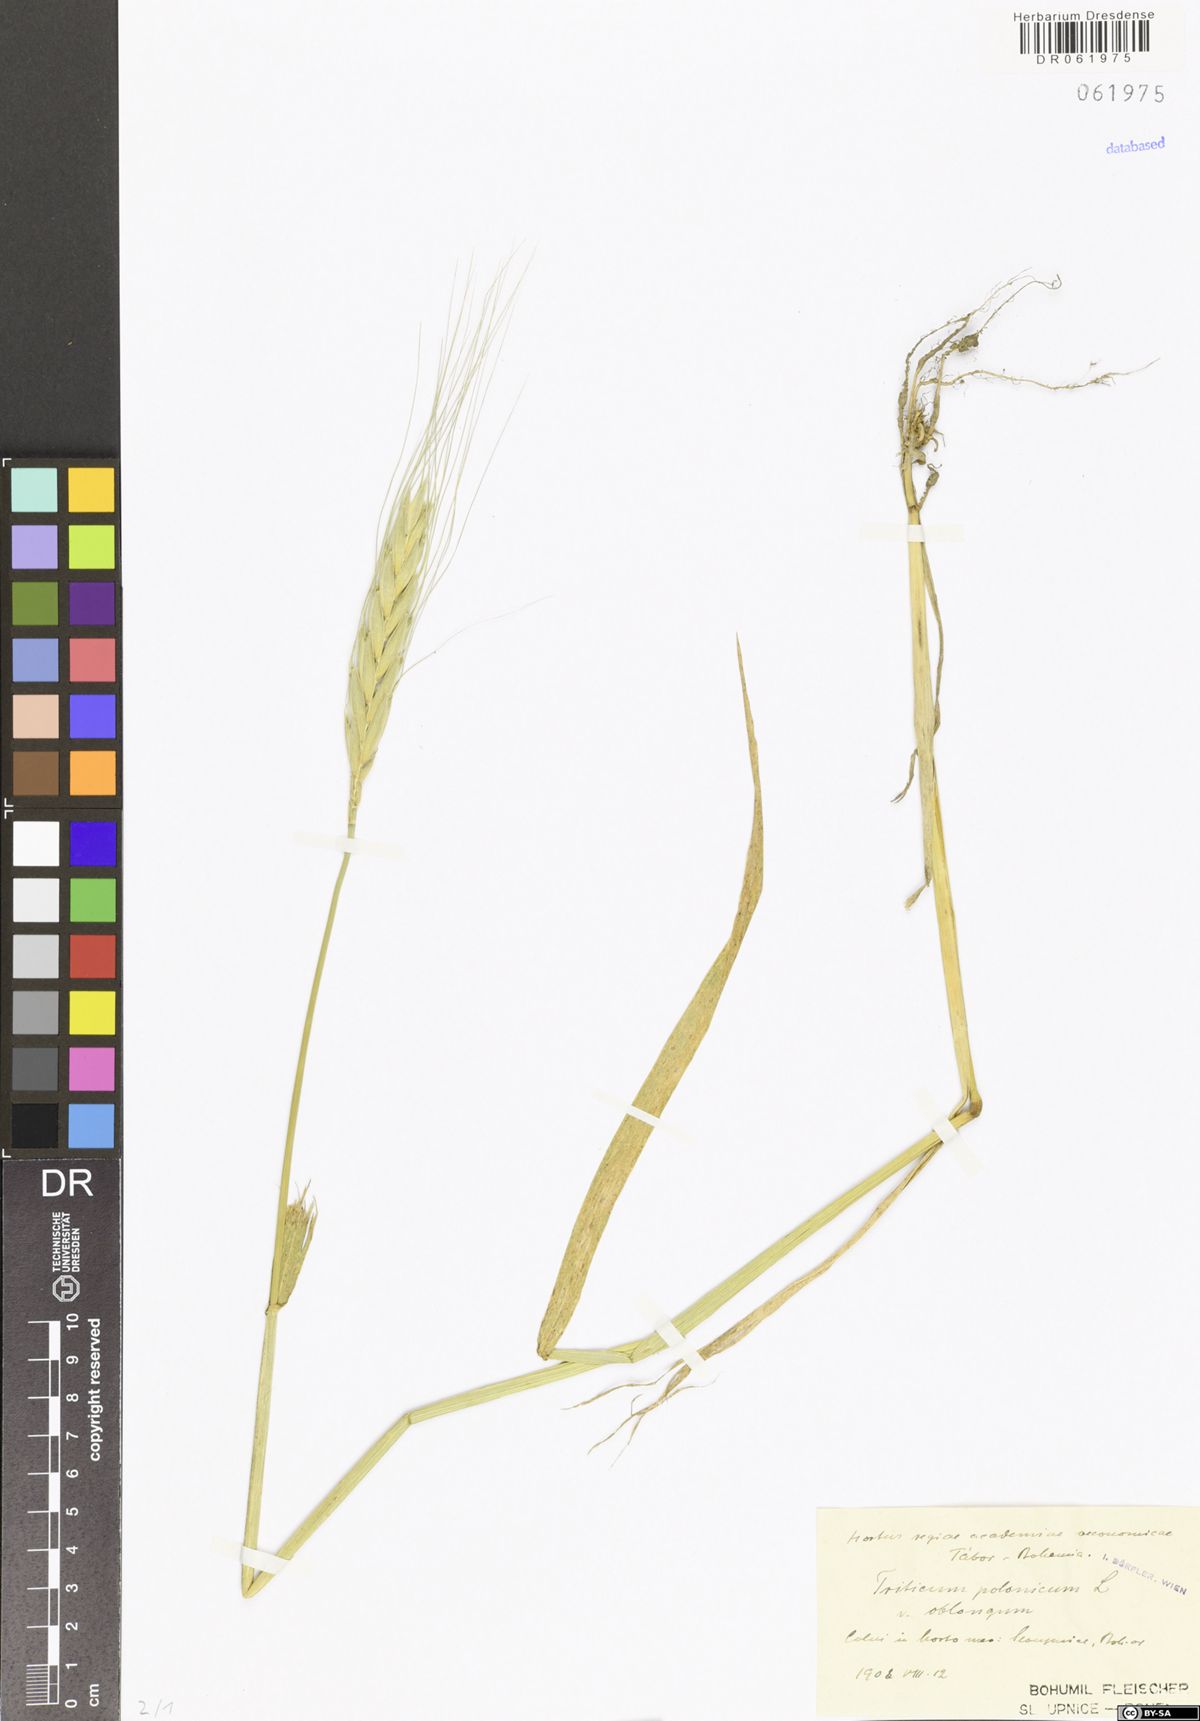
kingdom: Plantae
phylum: Tracheophyta
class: Liliopsida
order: Poales
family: Poaceae
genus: Triticum
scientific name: Triticum turgidum
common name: Rivet wheat
